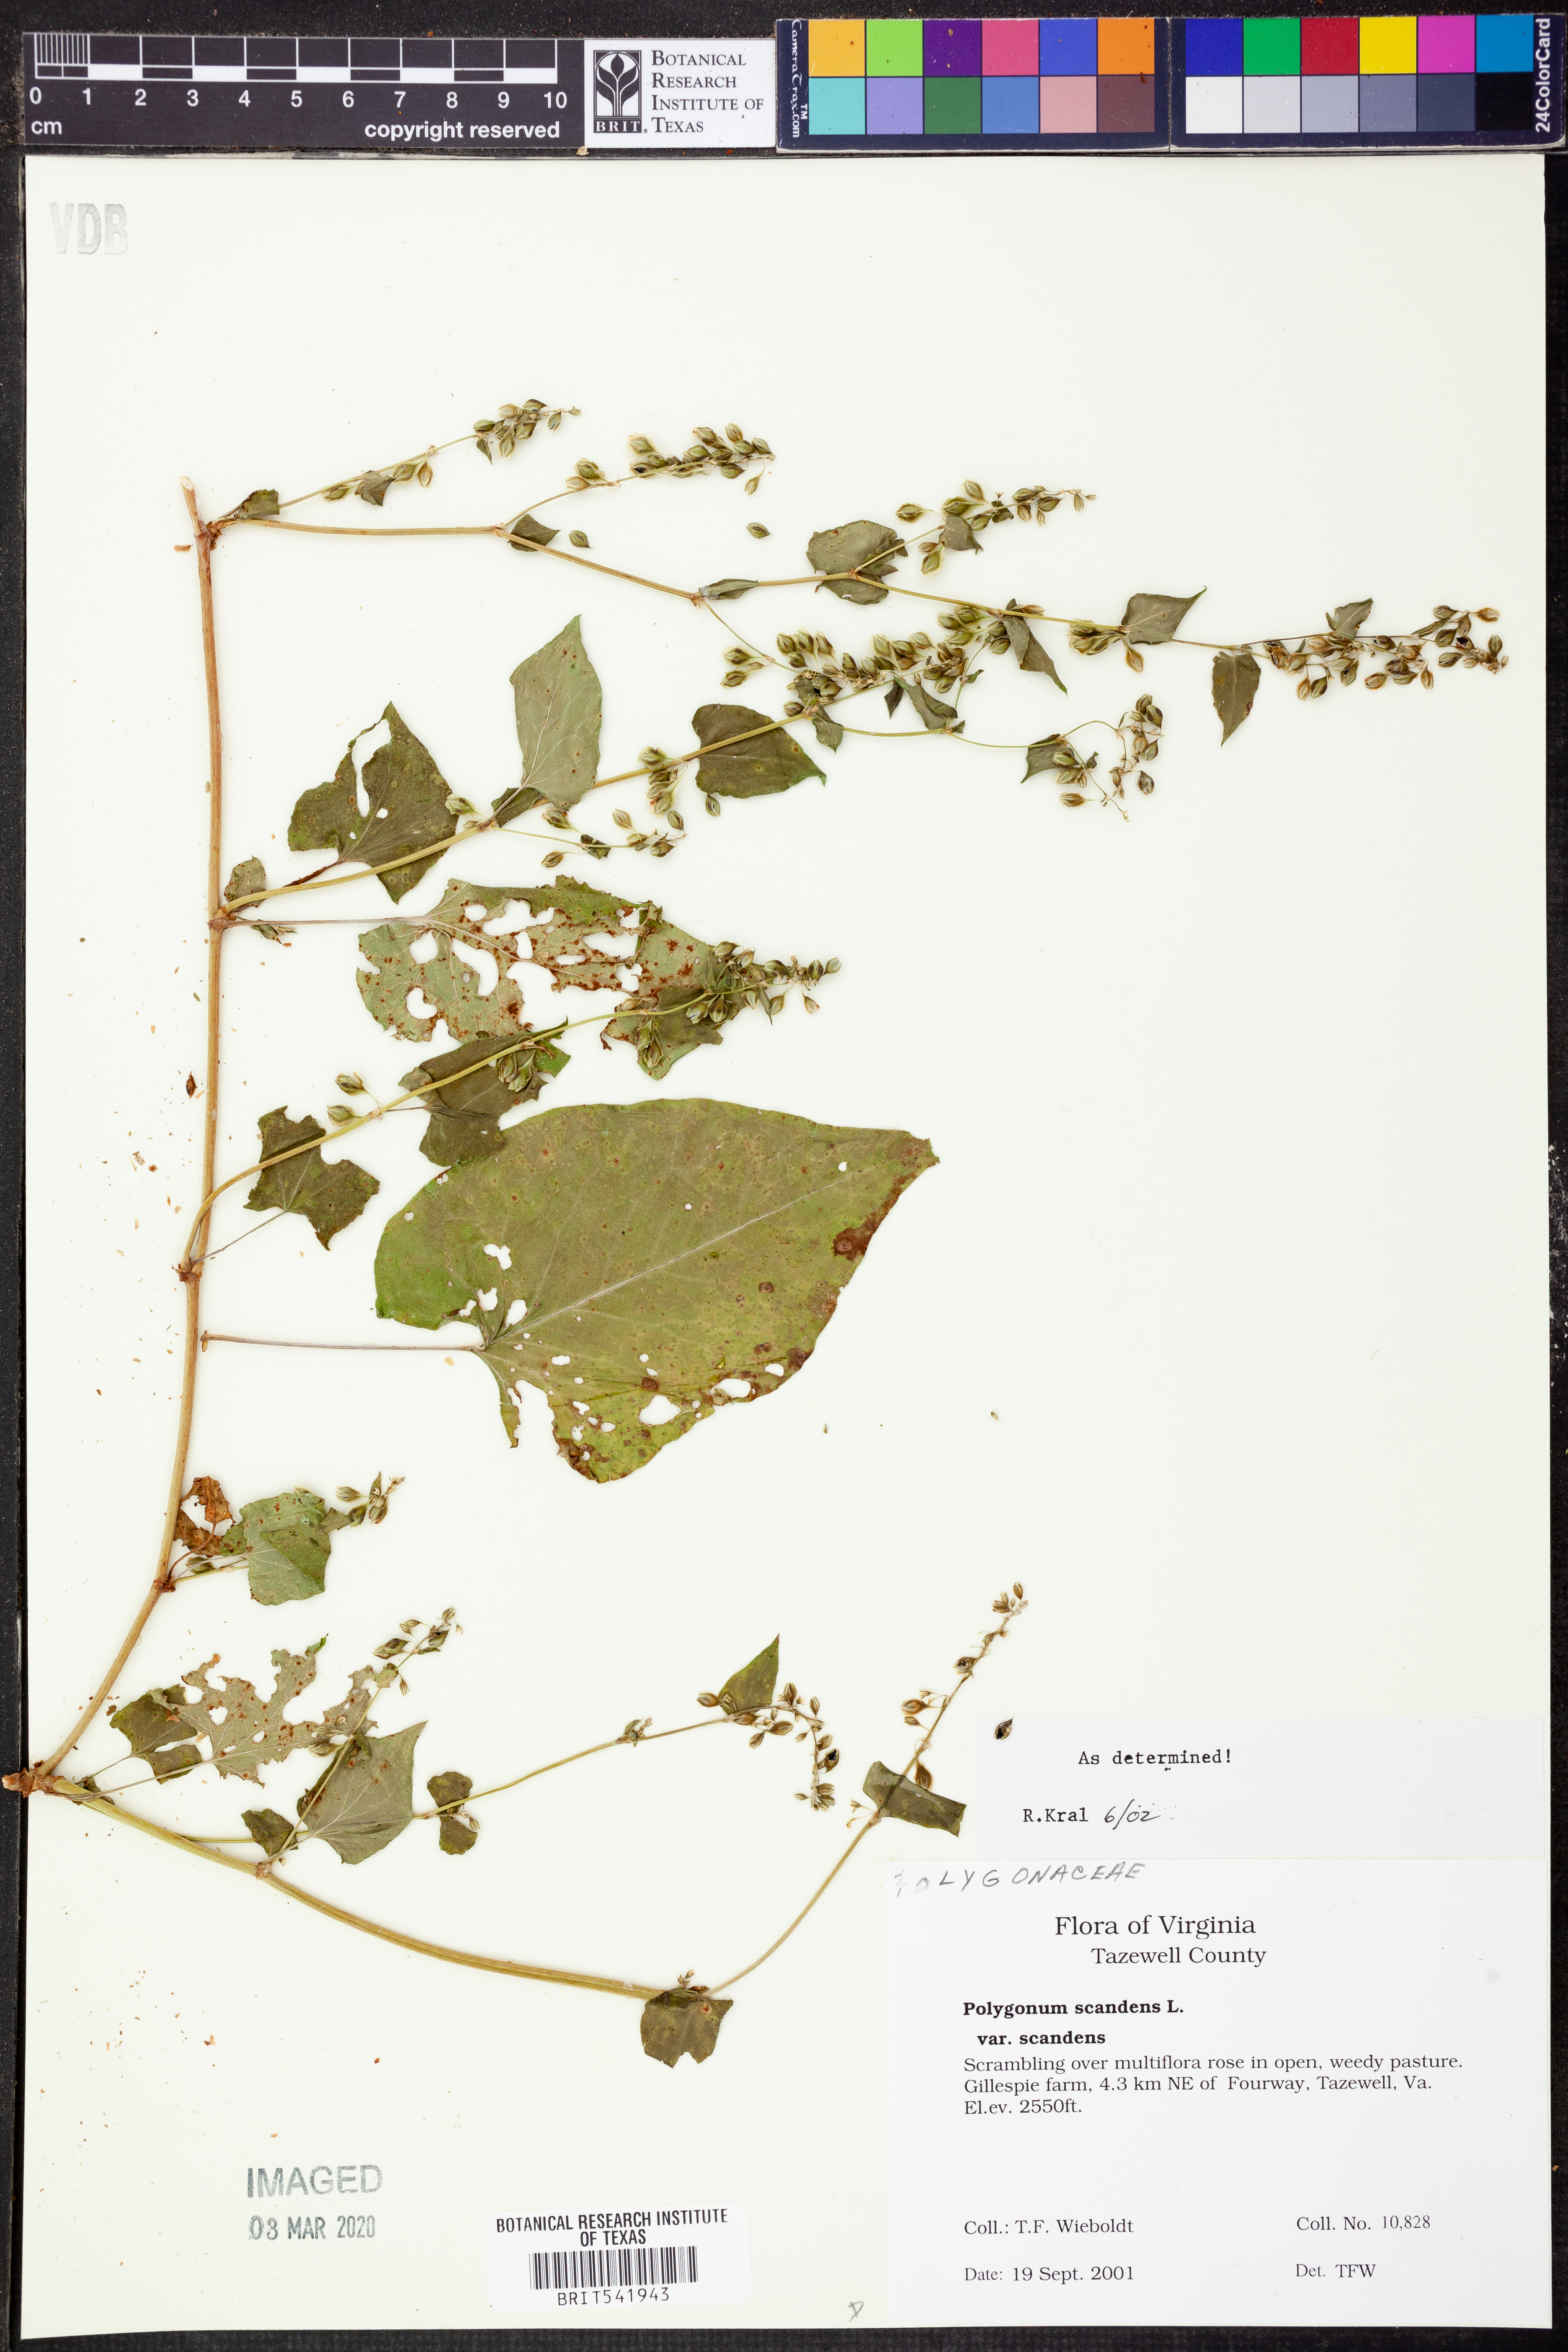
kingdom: Plantae
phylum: Tracheophyta
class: Magnoliopsida
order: Caryophyllales
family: Polygonaceae
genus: Fallopia
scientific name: Fallopia scandens
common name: Climbing false buckwheat
